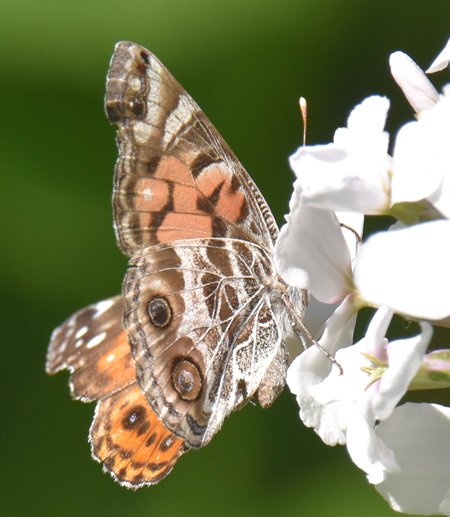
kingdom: Animalia
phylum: Arthropoda
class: Insecta
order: Lepidoptera
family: Nymphalidae
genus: Vanessa
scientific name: Vanessa virginiensis
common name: American Lady
